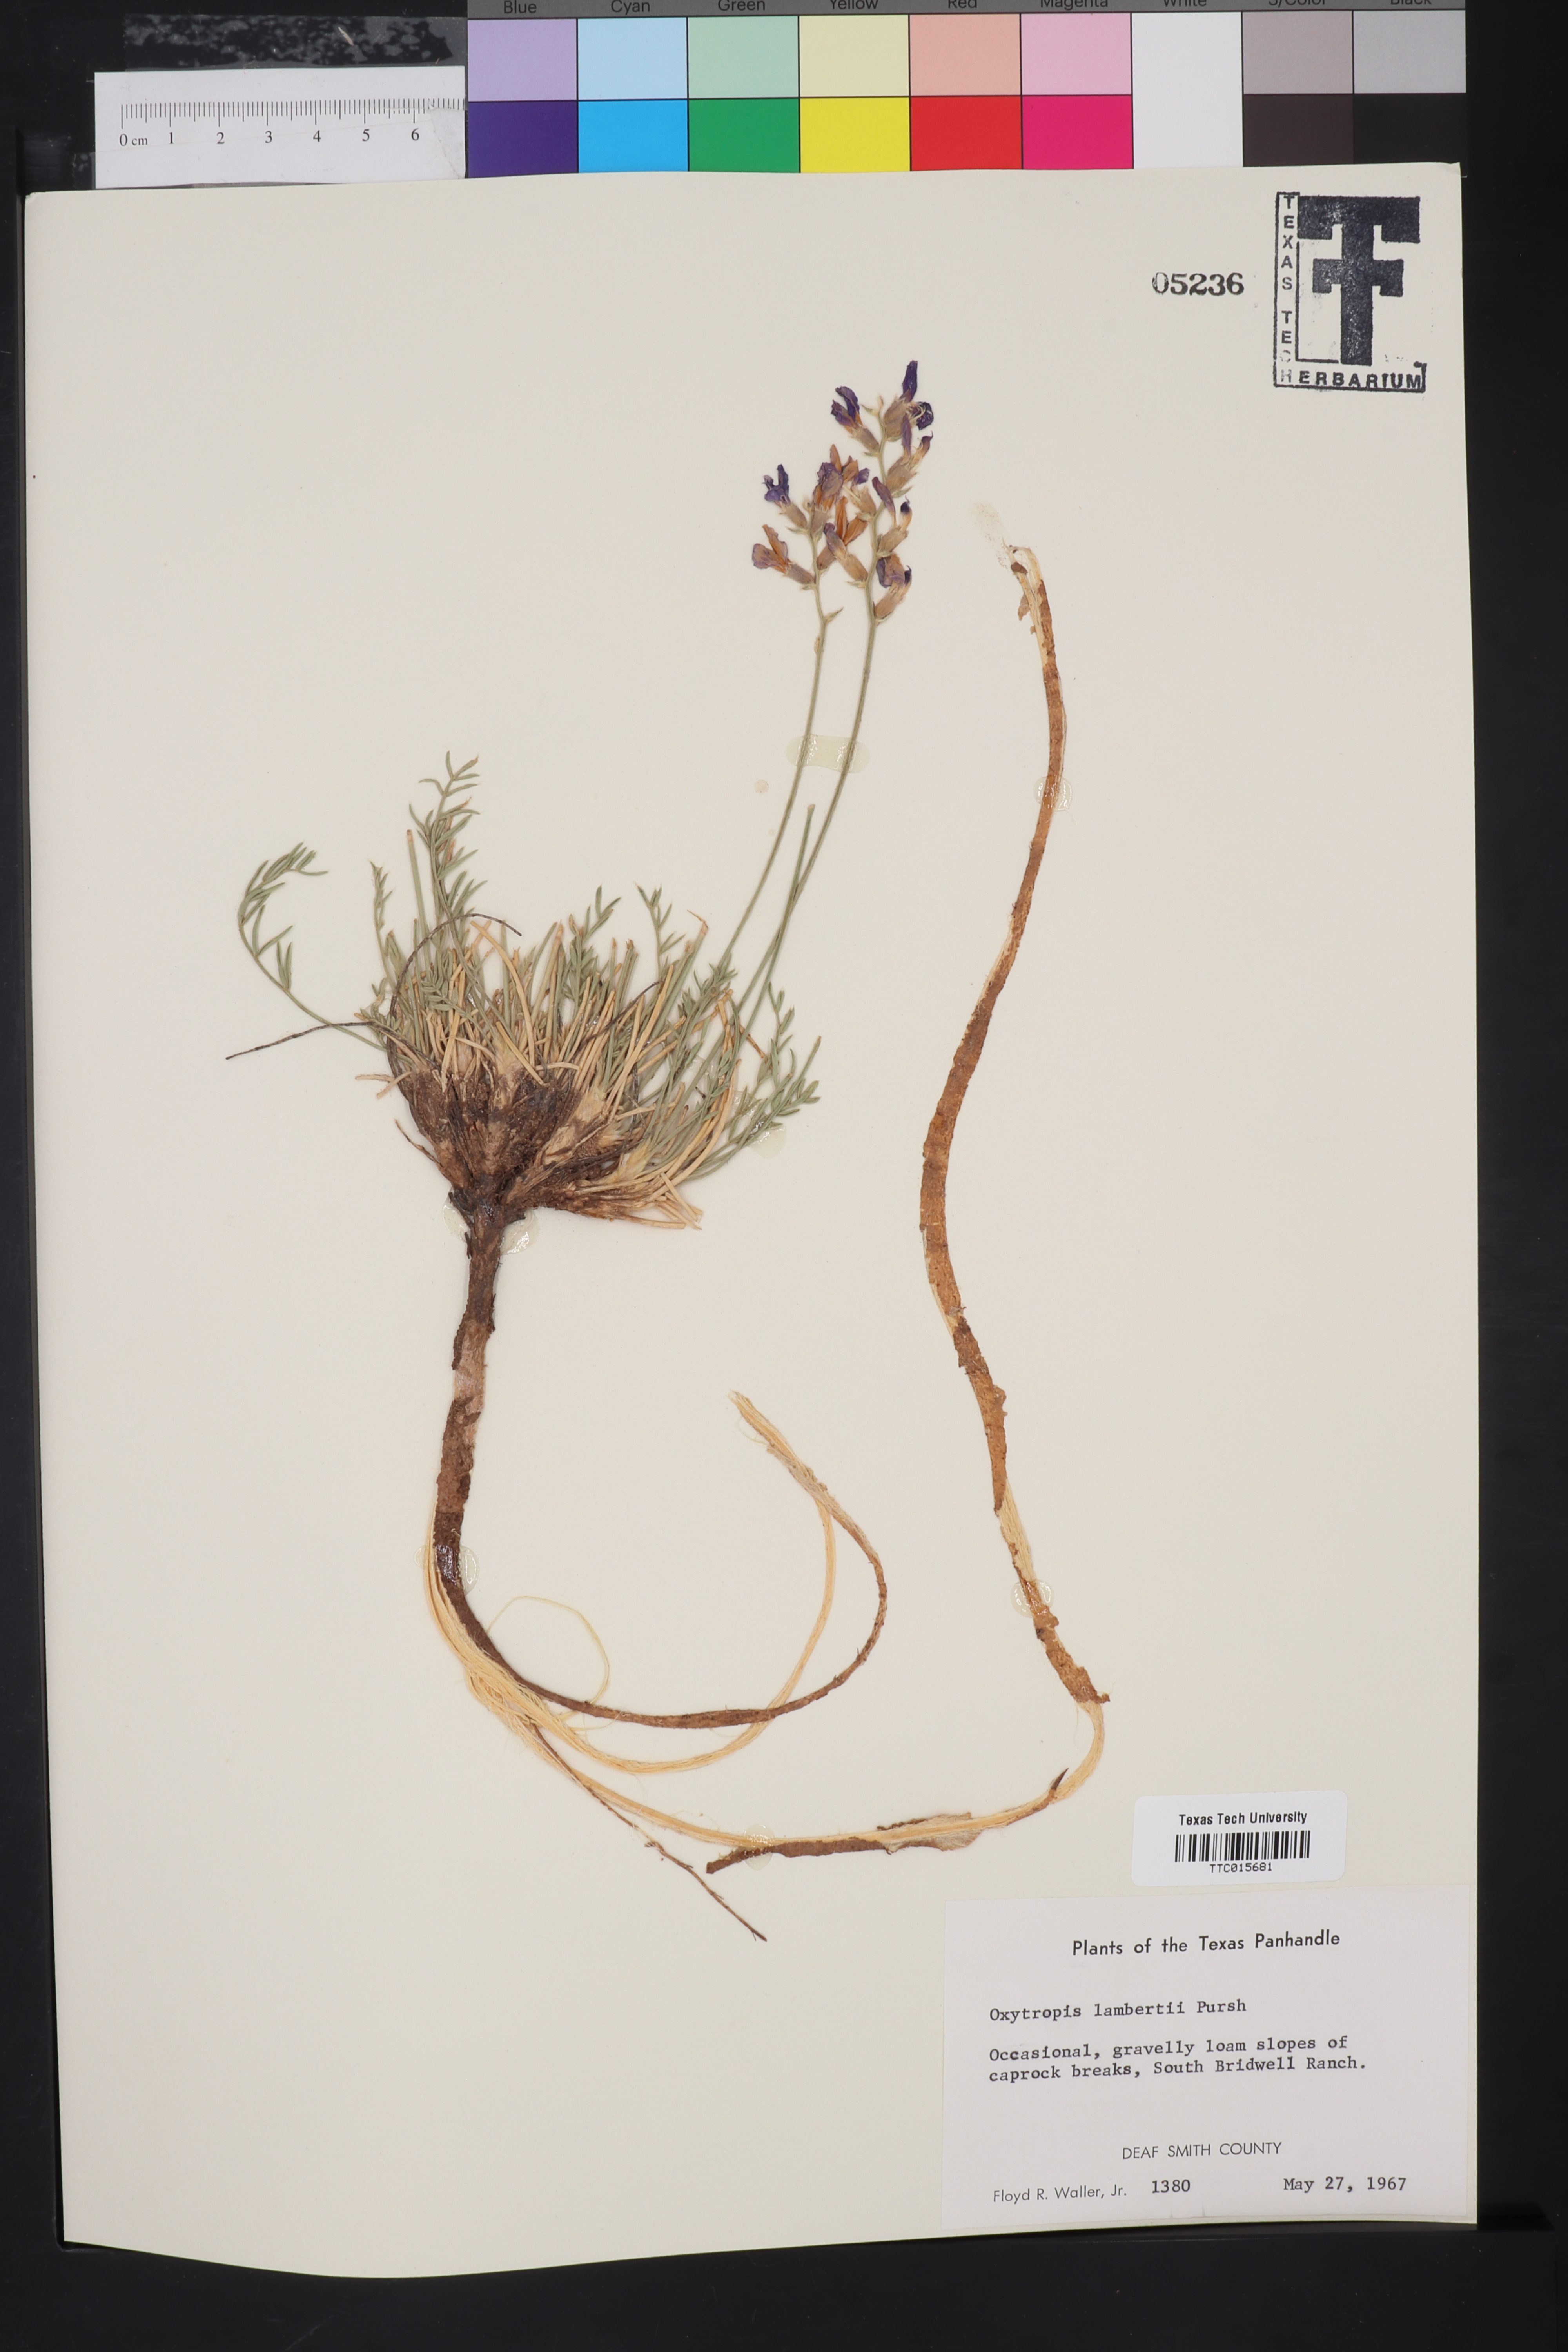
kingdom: Plantae
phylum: Tracheophyta
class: Magnoliopsida
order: Fabales
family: Fabaceae
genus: Oxytropis
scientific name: Oxytropis lambertii
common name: Purple locoweed
